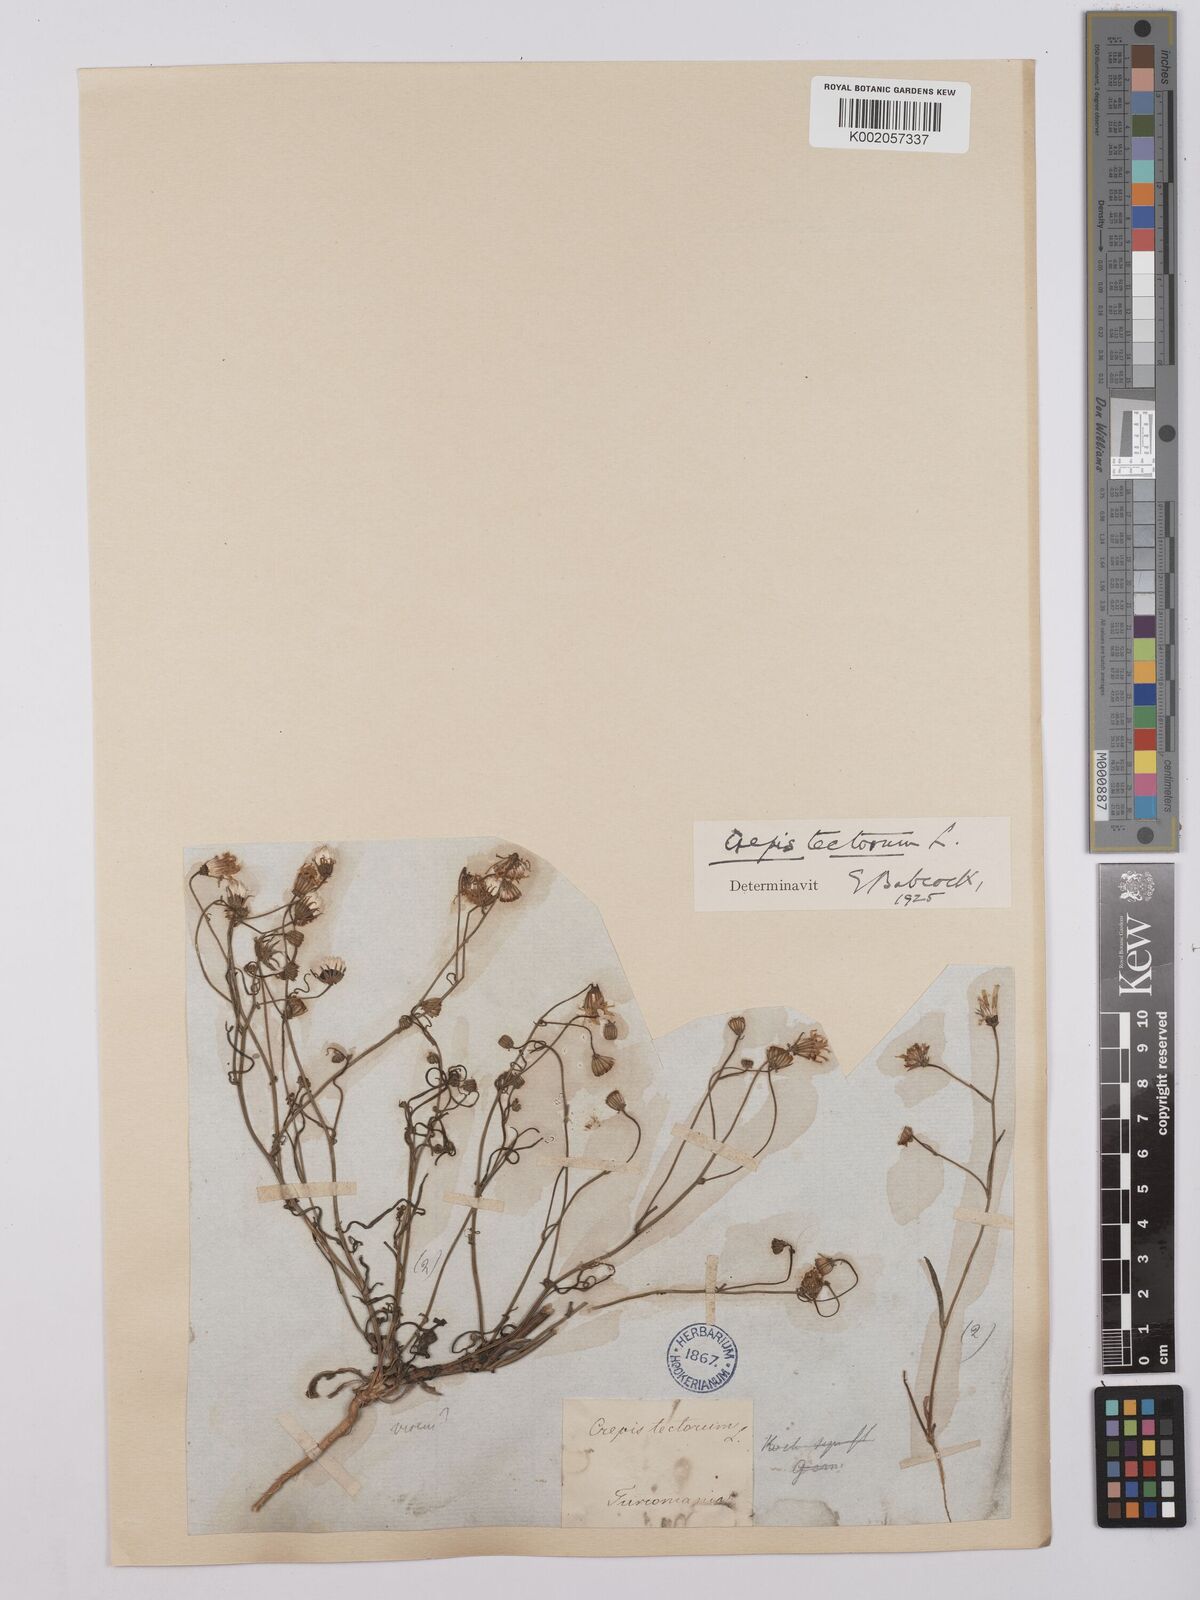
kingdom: Plantae
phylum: Tracheophyta
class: Magnoliopsida
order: Asterales
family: Asteraceae
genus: Crepis
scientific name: Crepis tectorum
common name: Narrow-leaved hawk's-beard
